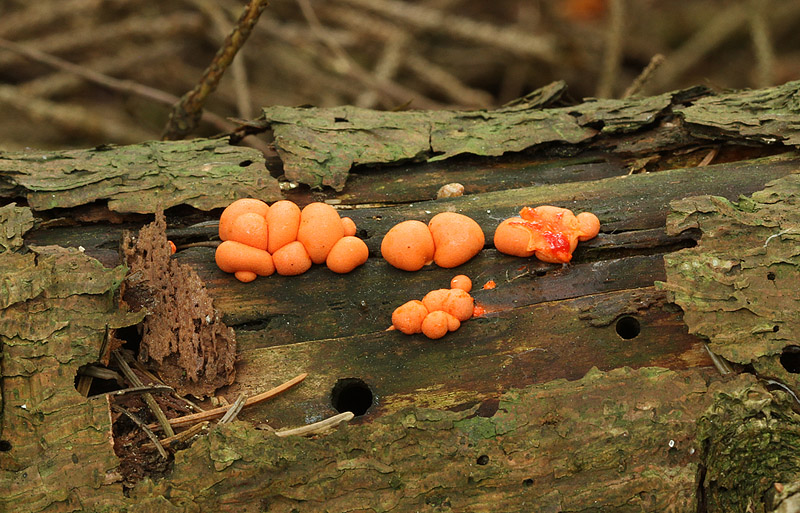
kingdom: Protozoa
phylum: Mycetozoa
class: Myxomycetes
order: Cribrariales
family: Tubiferaceae
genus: Lycogala
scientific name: Lycogala epidendrum
